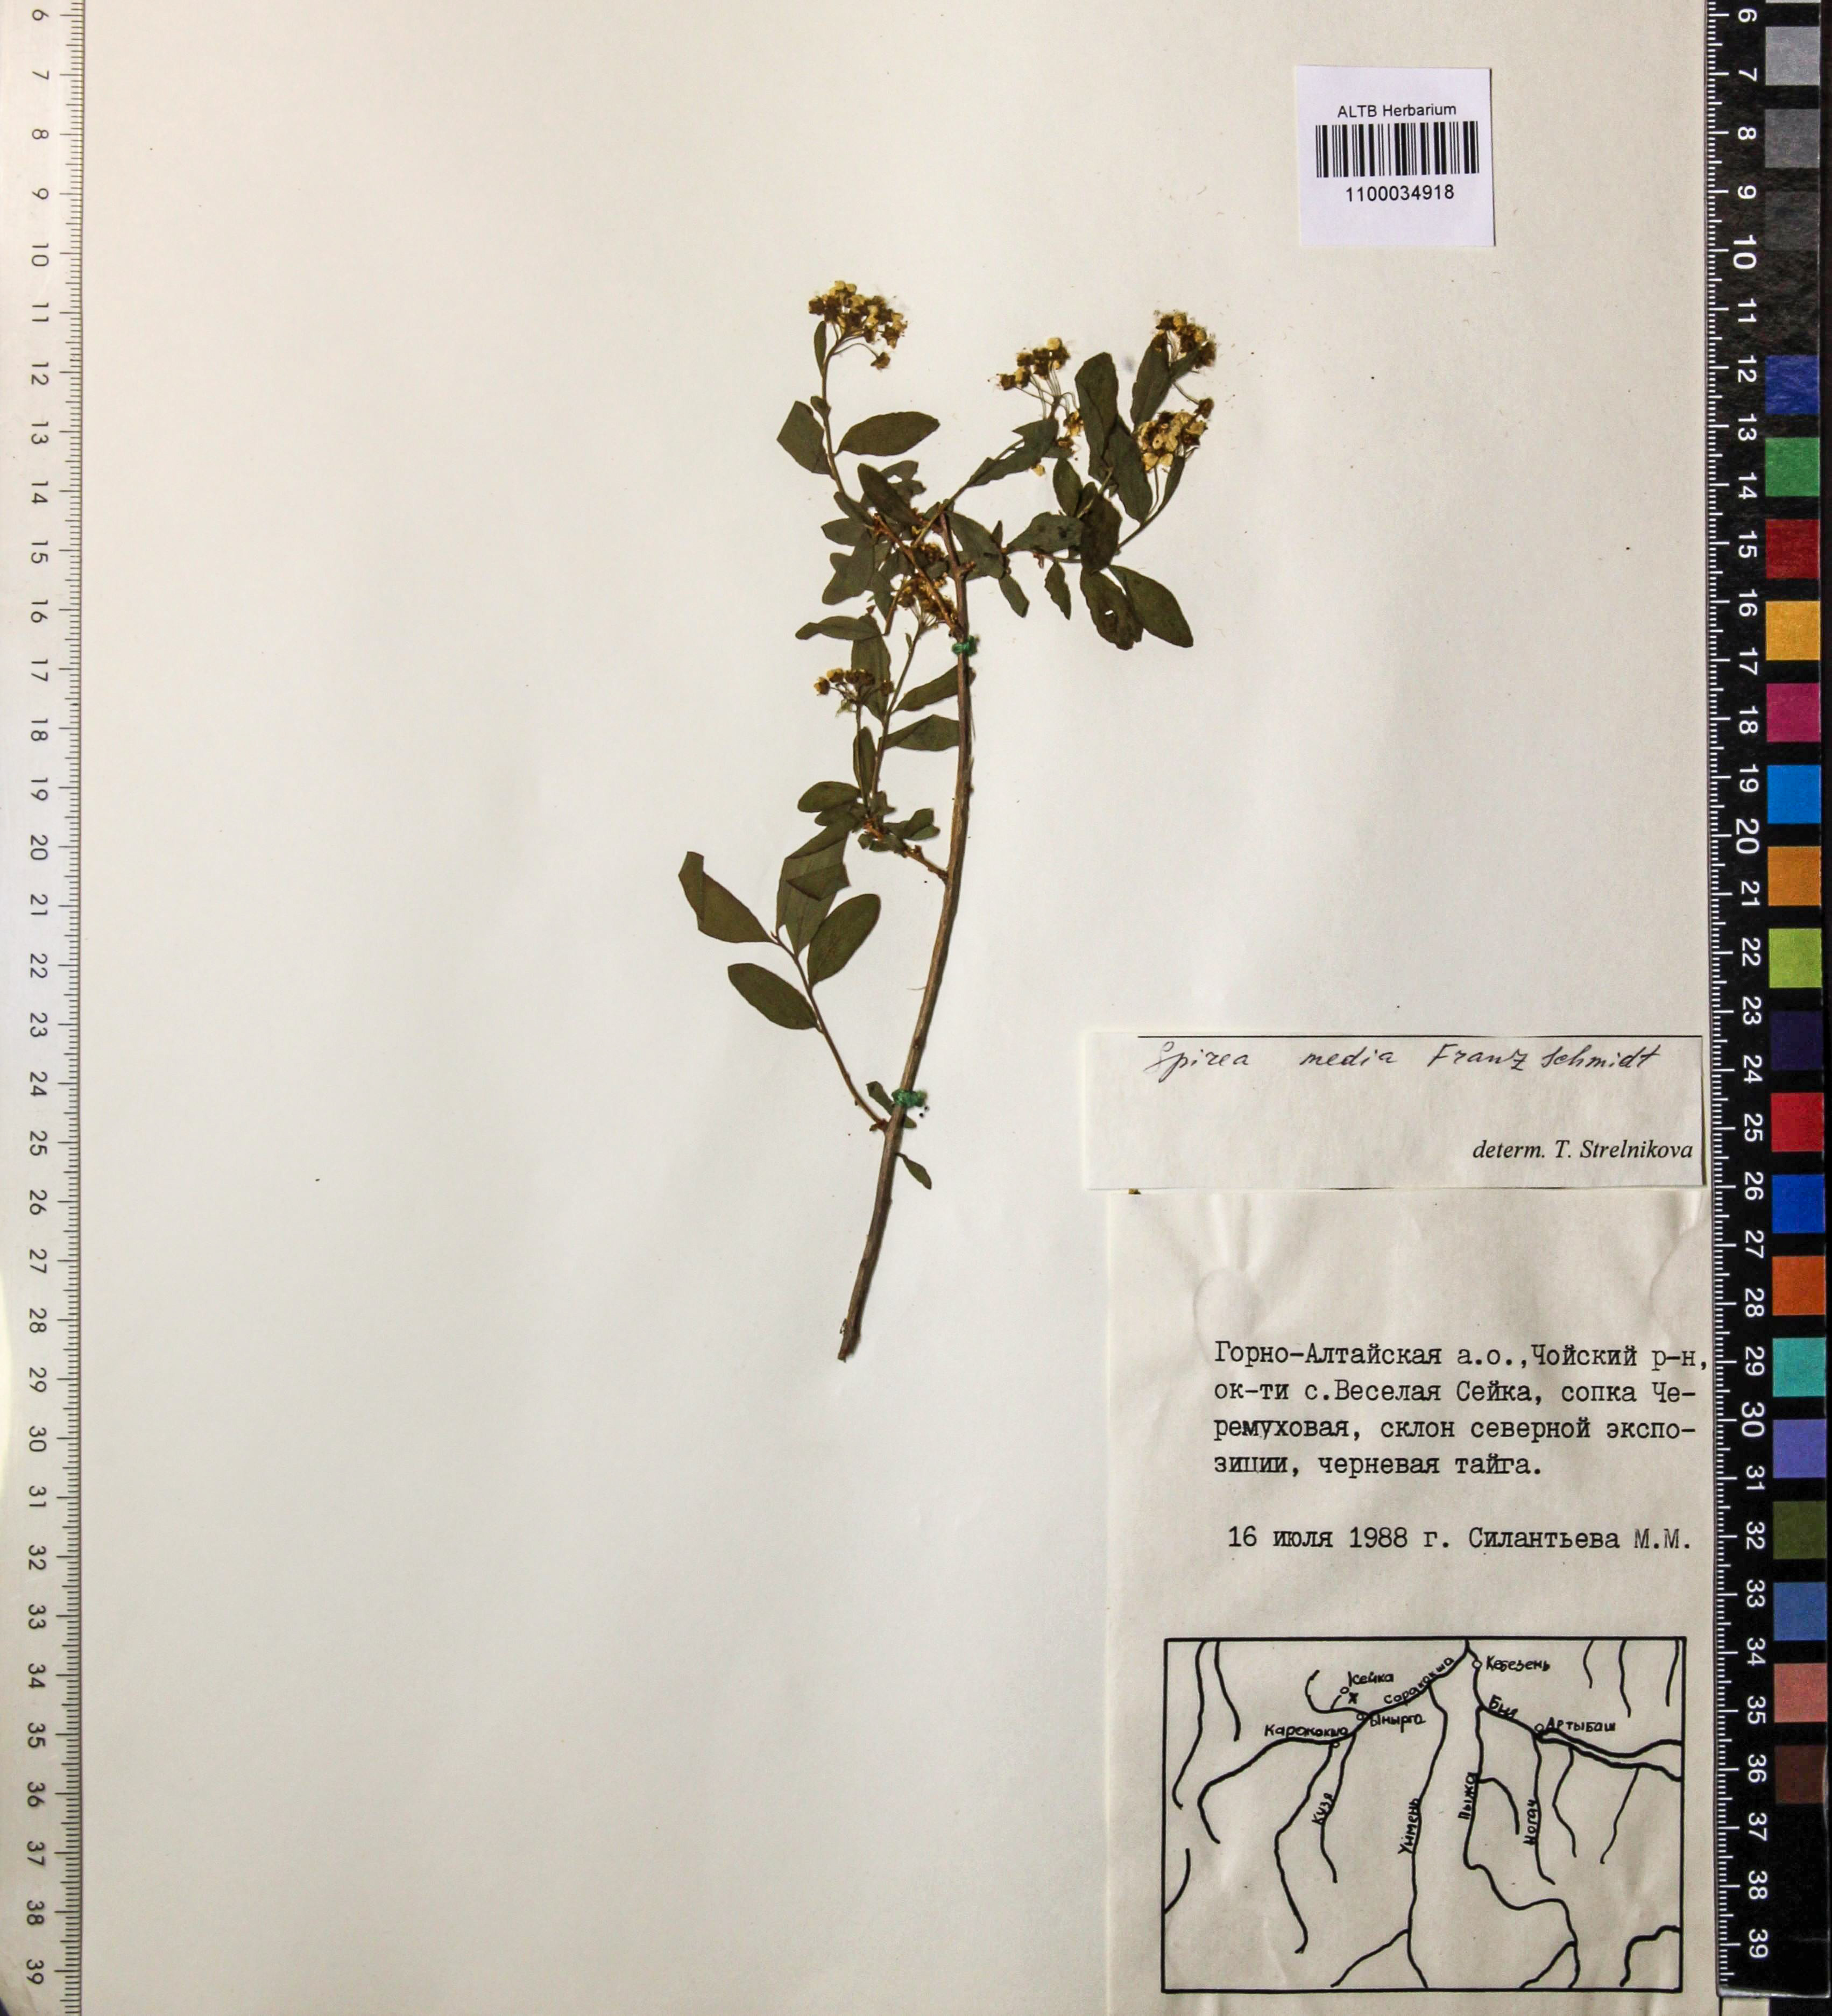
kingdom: Plantae
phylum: Tracheophyta
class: Magnoliopsida
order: Rosales
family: Rosaceae
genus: Spiraea
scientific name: Spiraea media
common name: Russian spiraea
